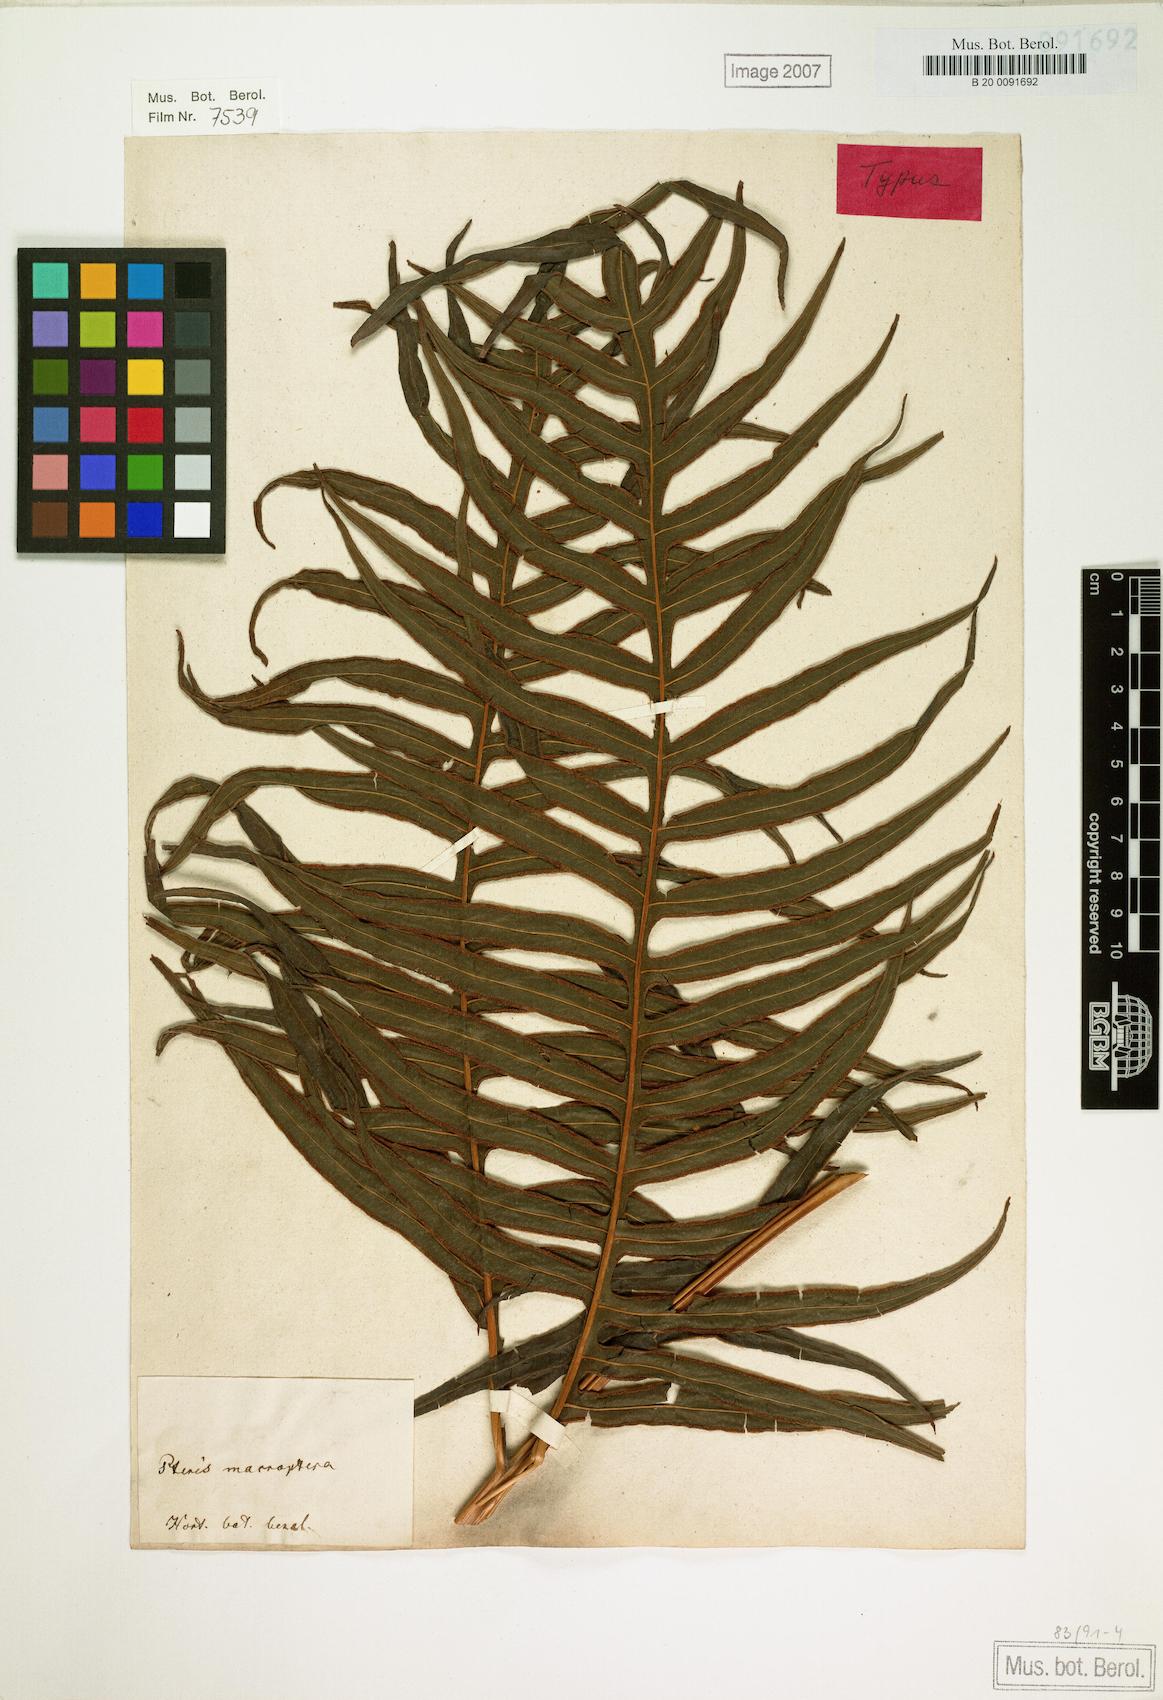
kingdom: Plantae
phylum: Tracheophyta
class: Polypodiopsida
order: Polypodiales
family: Pteridaceae
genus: Pteris
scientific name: Pteris altissima
